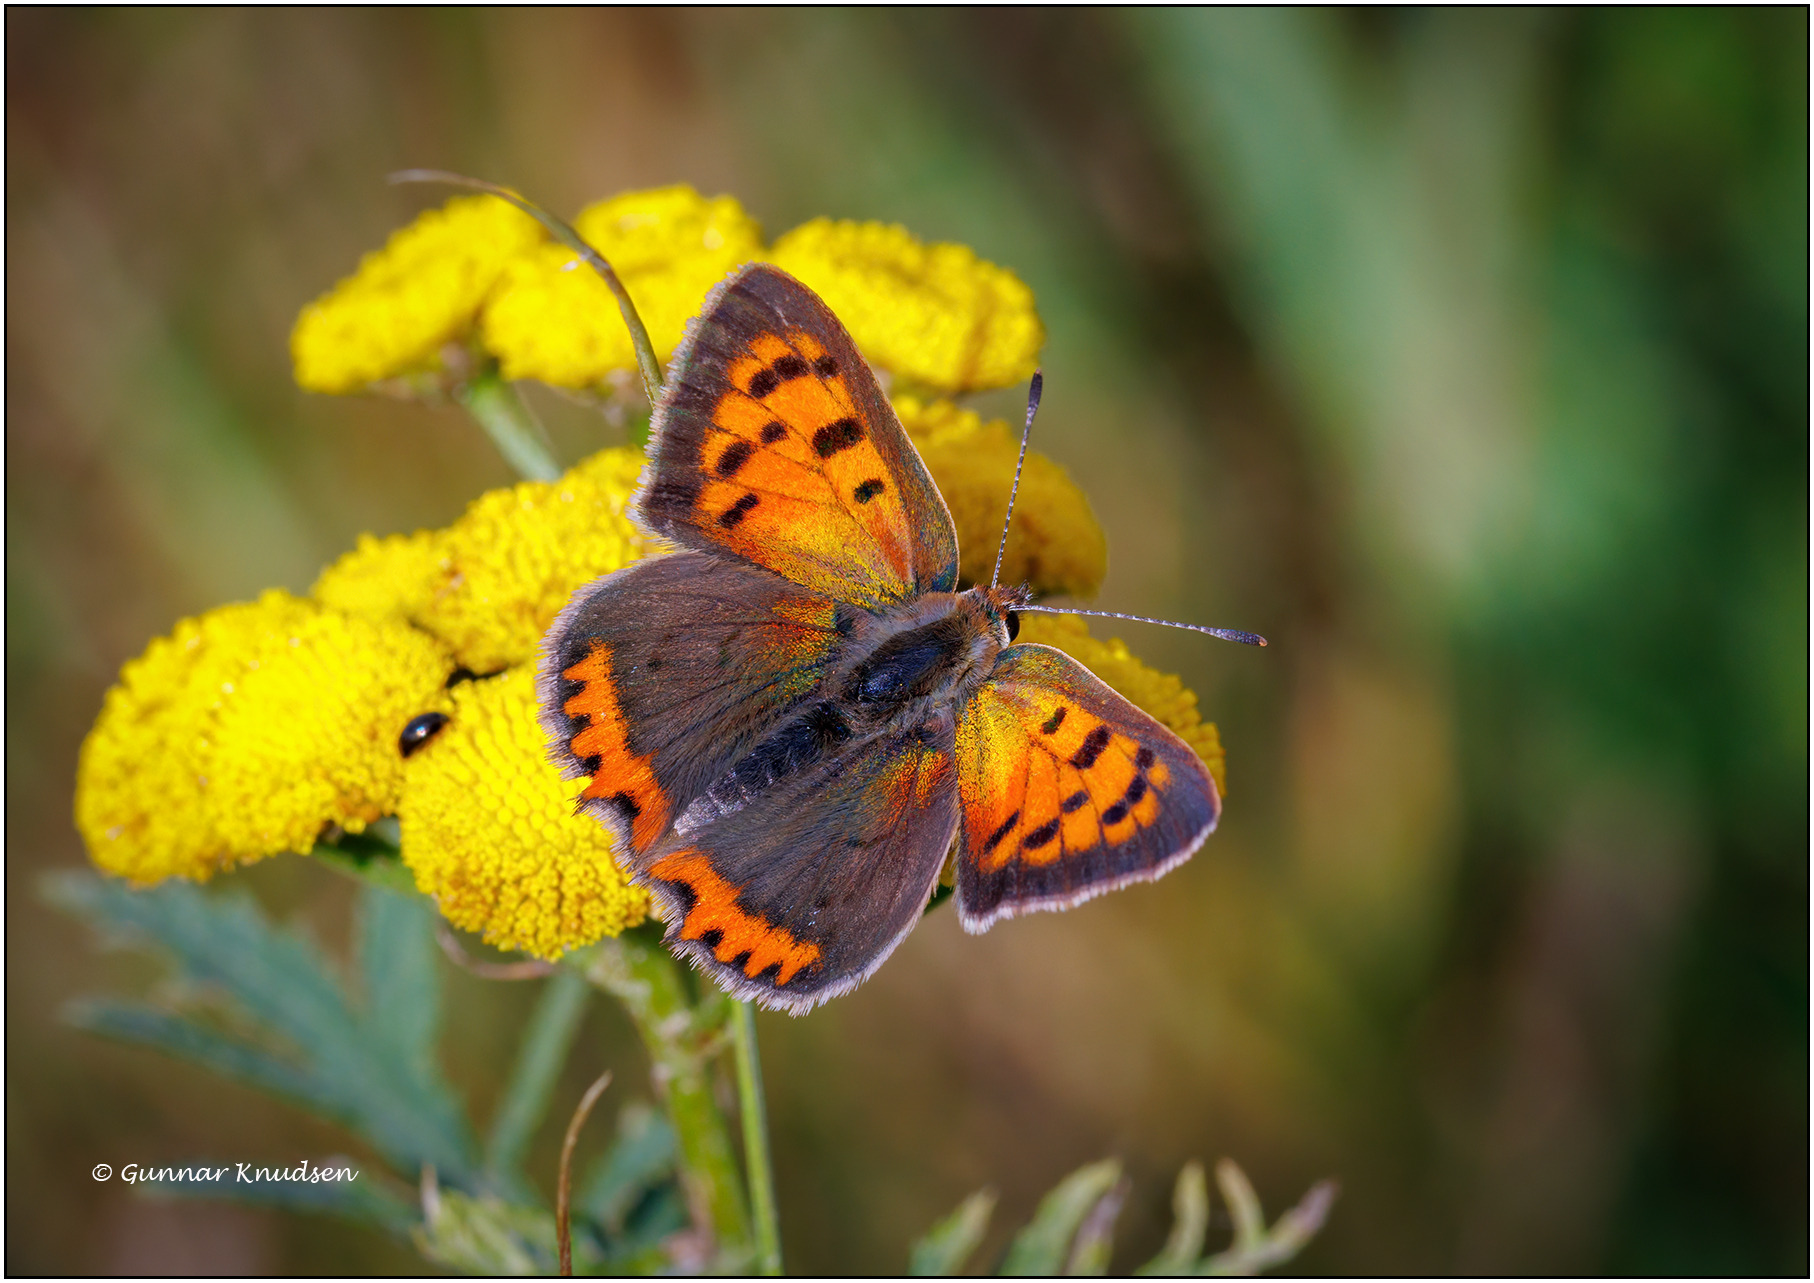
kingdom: Animalia
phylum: Arthropoda
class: Insecta
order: Lepidoptera
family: Lycaenidae
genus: Lycaena
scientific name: Lycaena phlaeas
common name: Lille ildfugl
